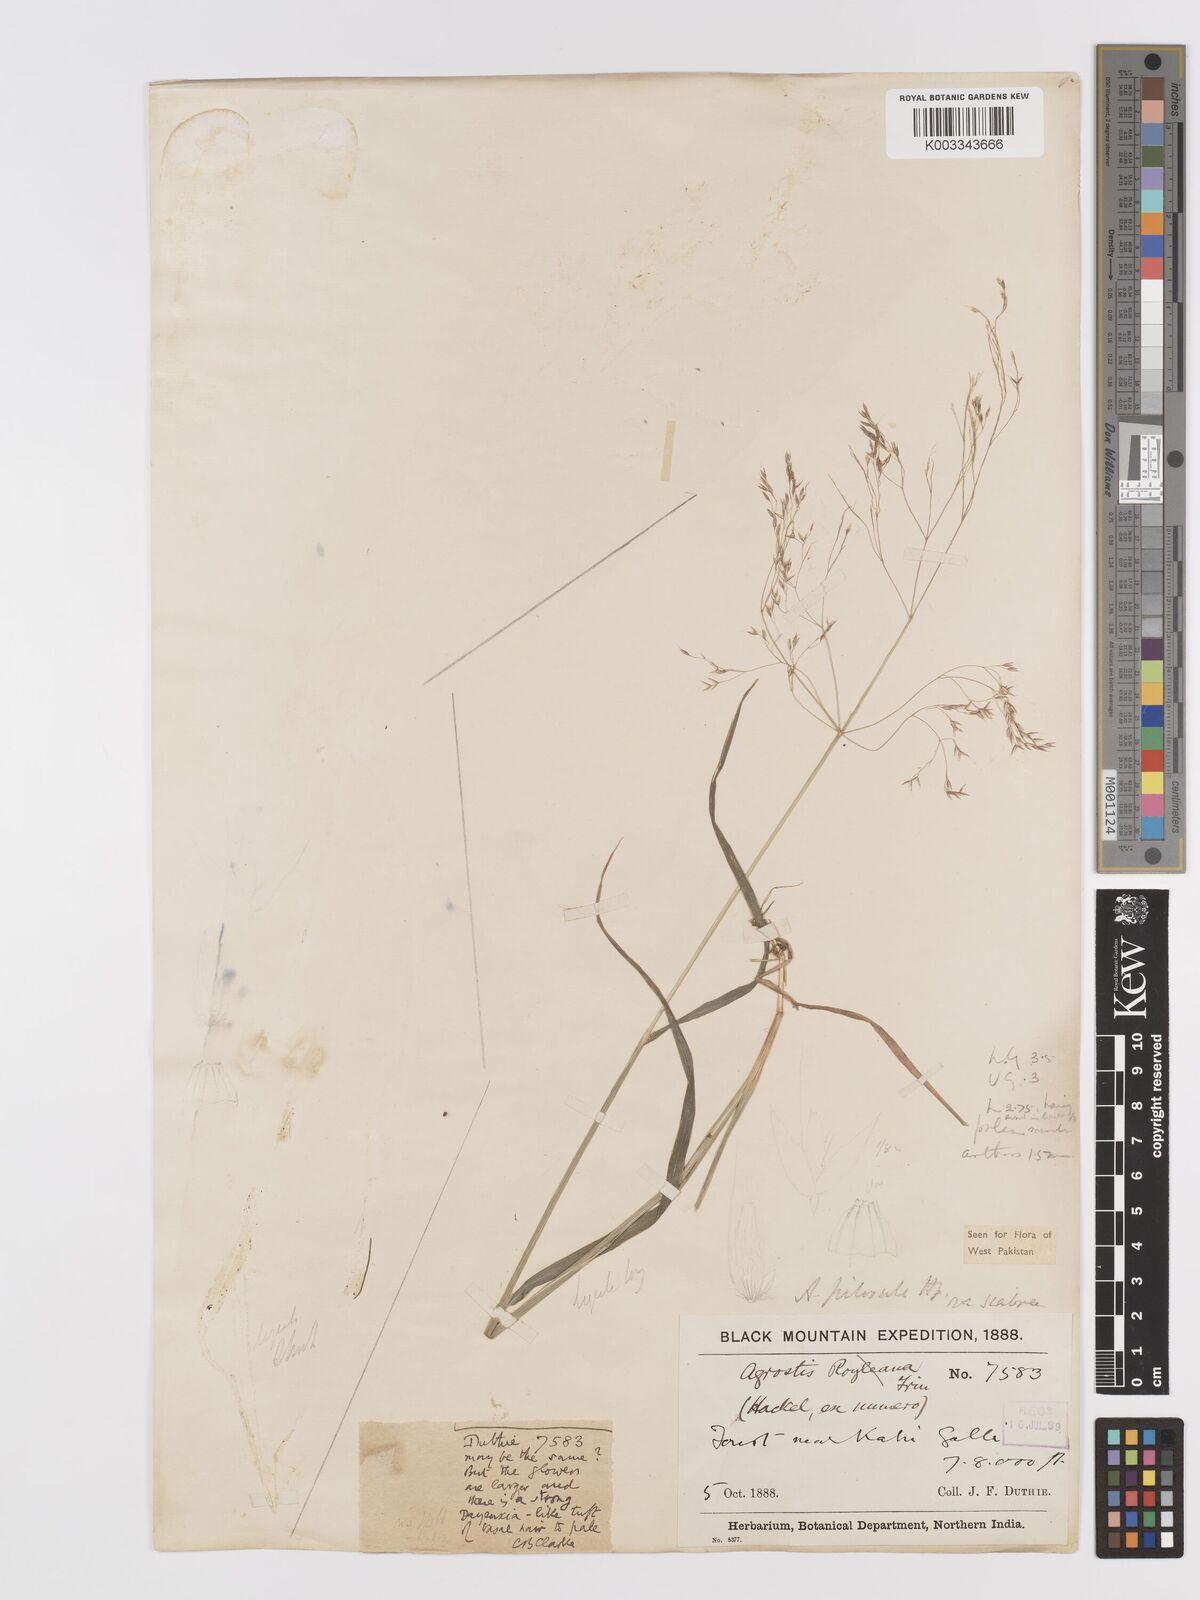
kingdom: Plantae
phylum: Tracheophyta
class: Liliopsida
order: Poales
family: Poaceae
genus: Agrostis
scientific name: Agrostis pilosula
